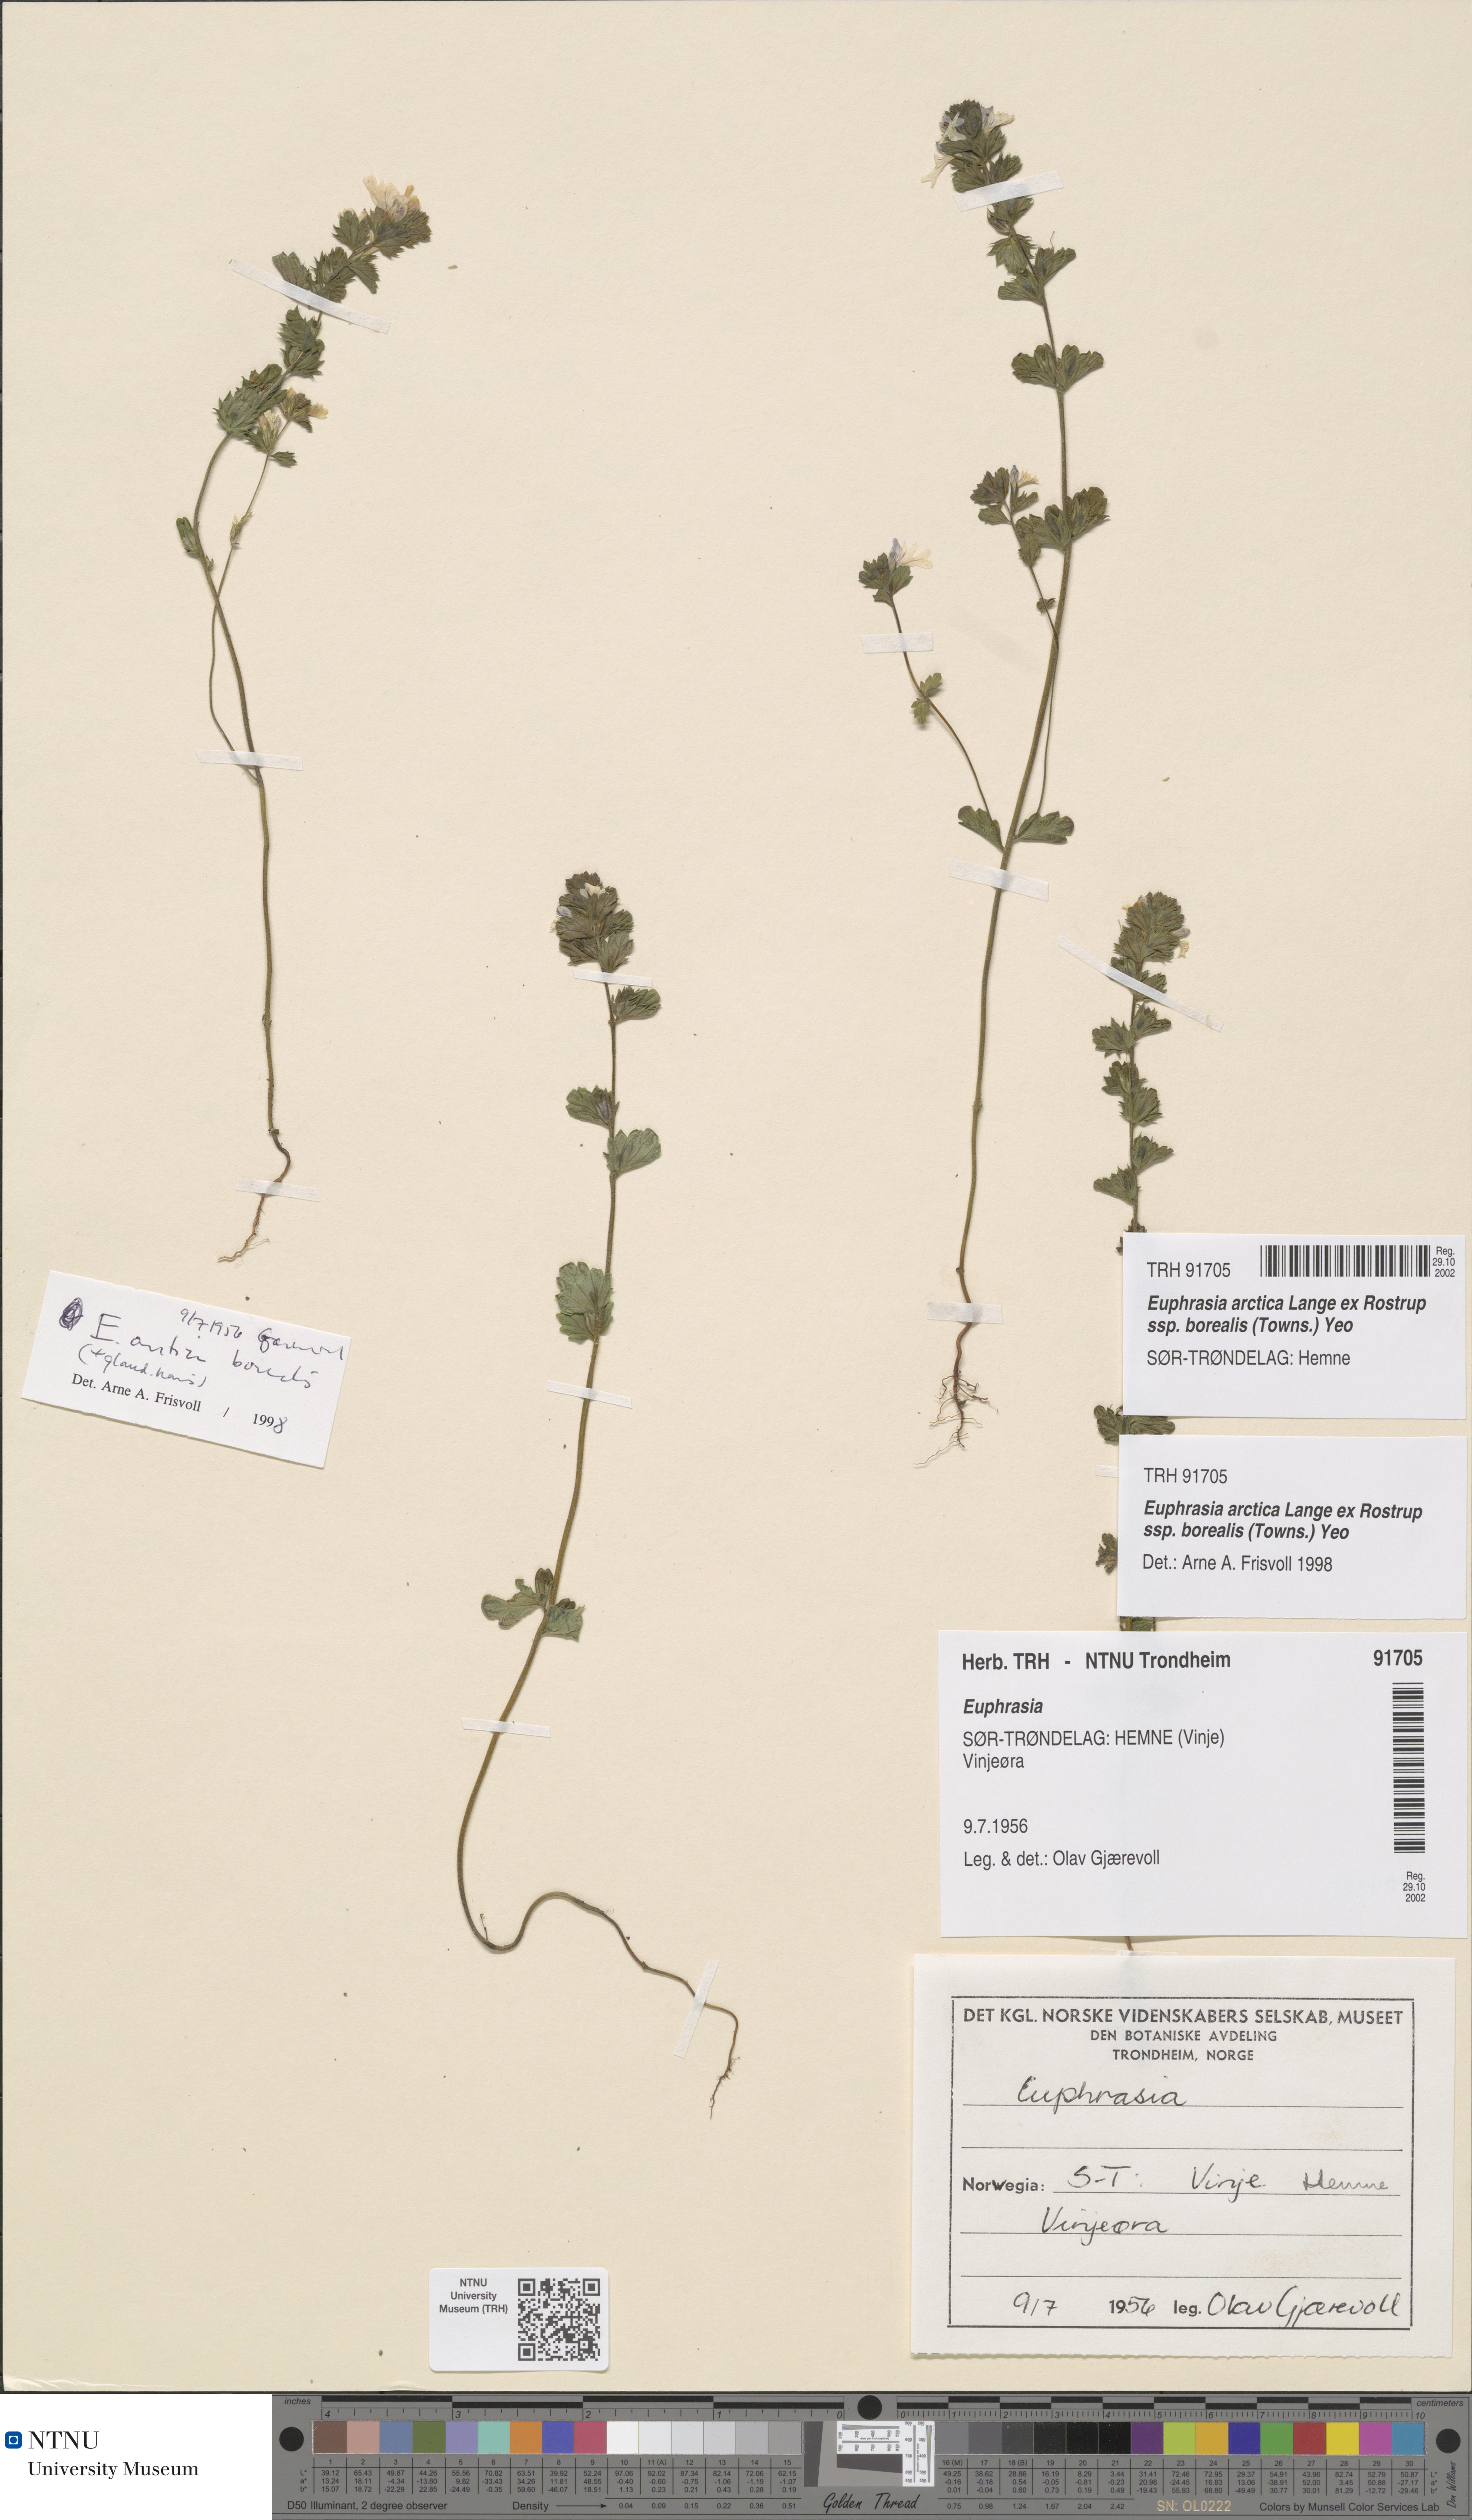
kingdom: Plantae
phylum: Tracheophyta
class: Magnoliopsida
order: Lamiales
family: Orobanchaceae
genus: Euphrasia
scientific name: Euphrasia arctica
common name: An eyebright
